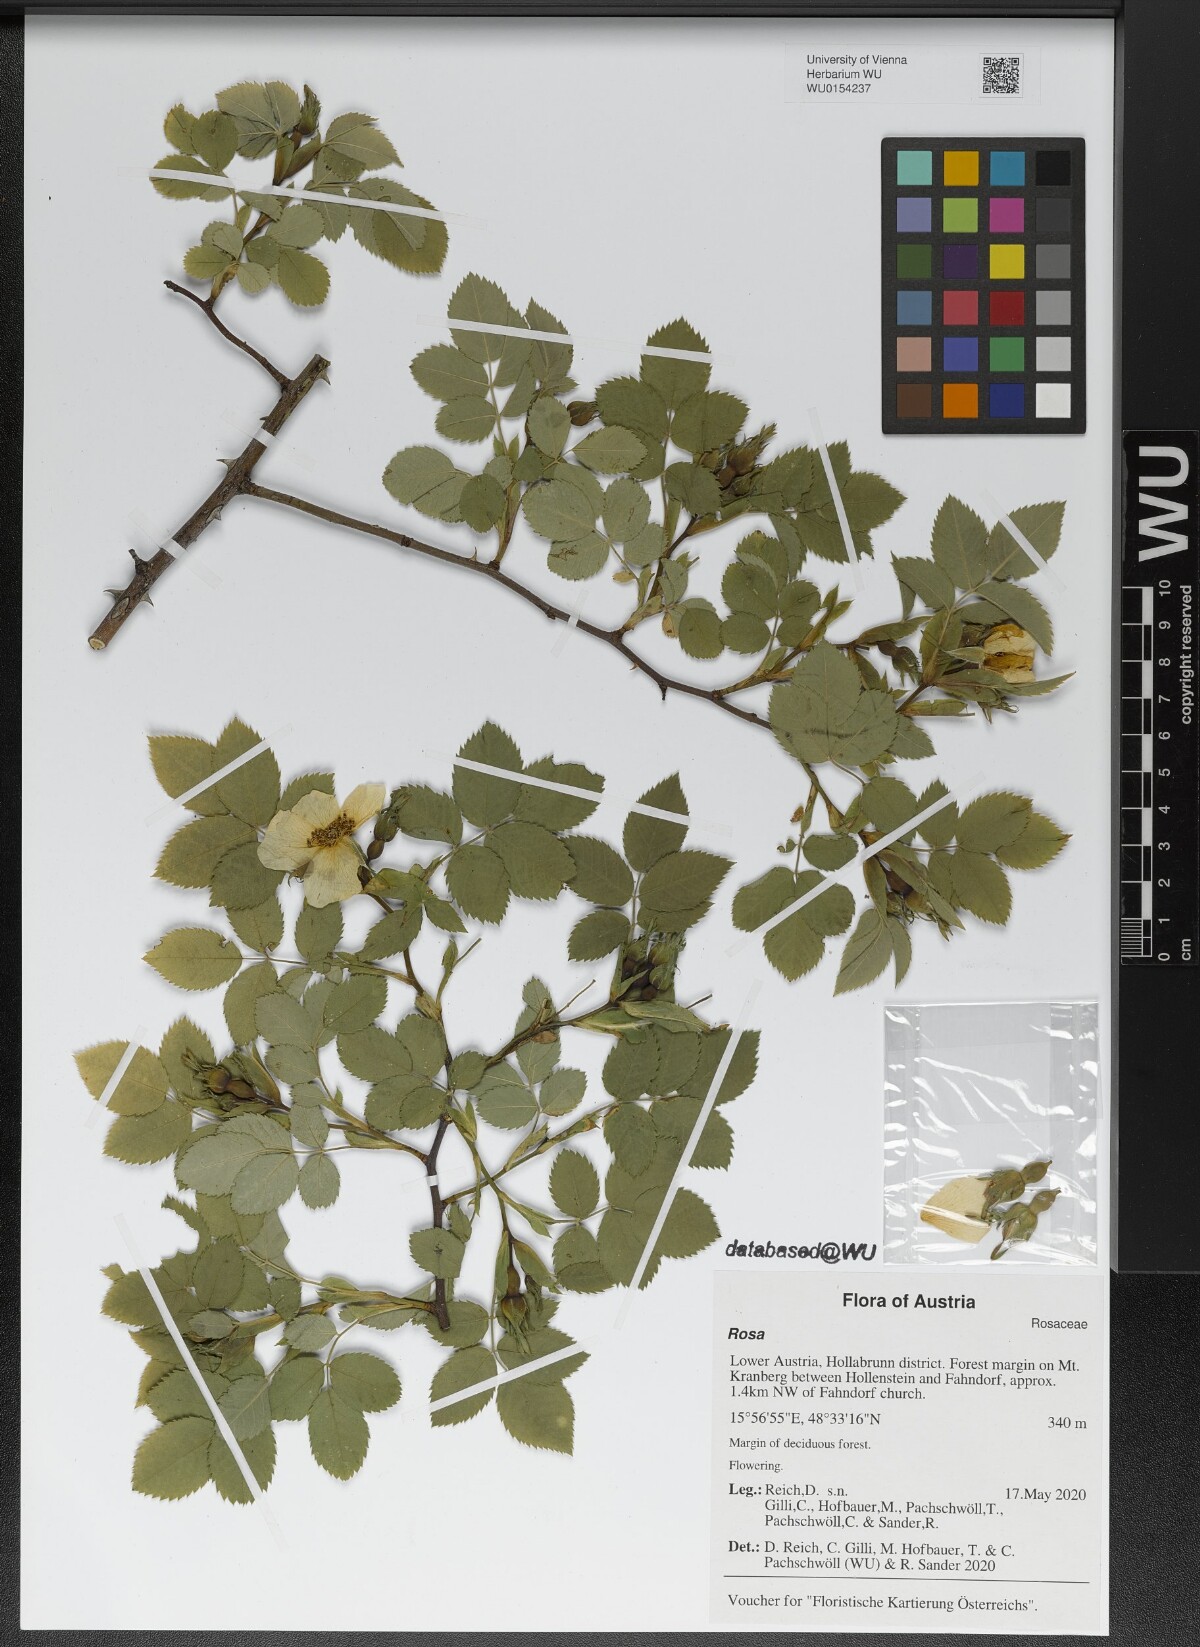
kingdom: Plantae
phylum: Tracheophyta
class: Magnoliopsida
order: Rosales
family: Rosaceae
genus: Rosa
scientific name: Rosa
